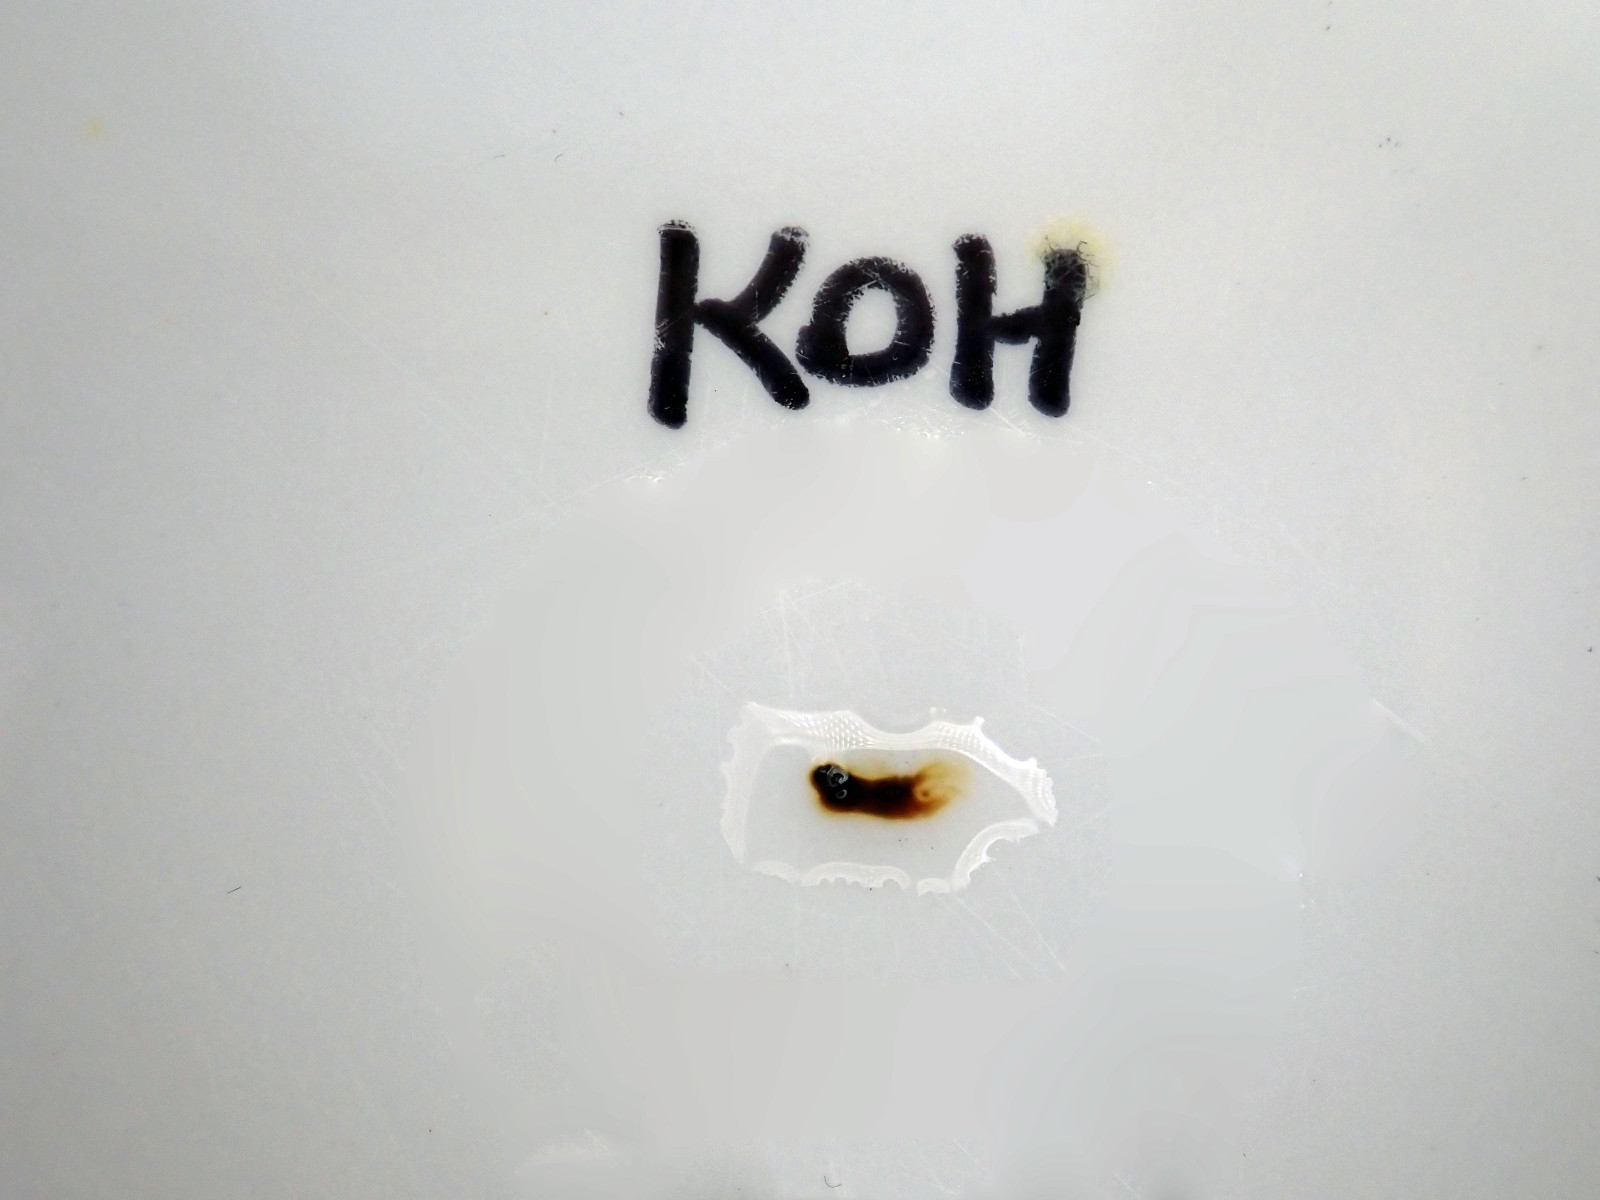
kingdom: Fungi
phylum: Ascomycota
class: Sordariomycetes
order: Xylariales
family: Hypoxylaceae
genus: Jackrogersella
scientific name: Jackrogersella multiformis
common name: foranderlig kulbær
